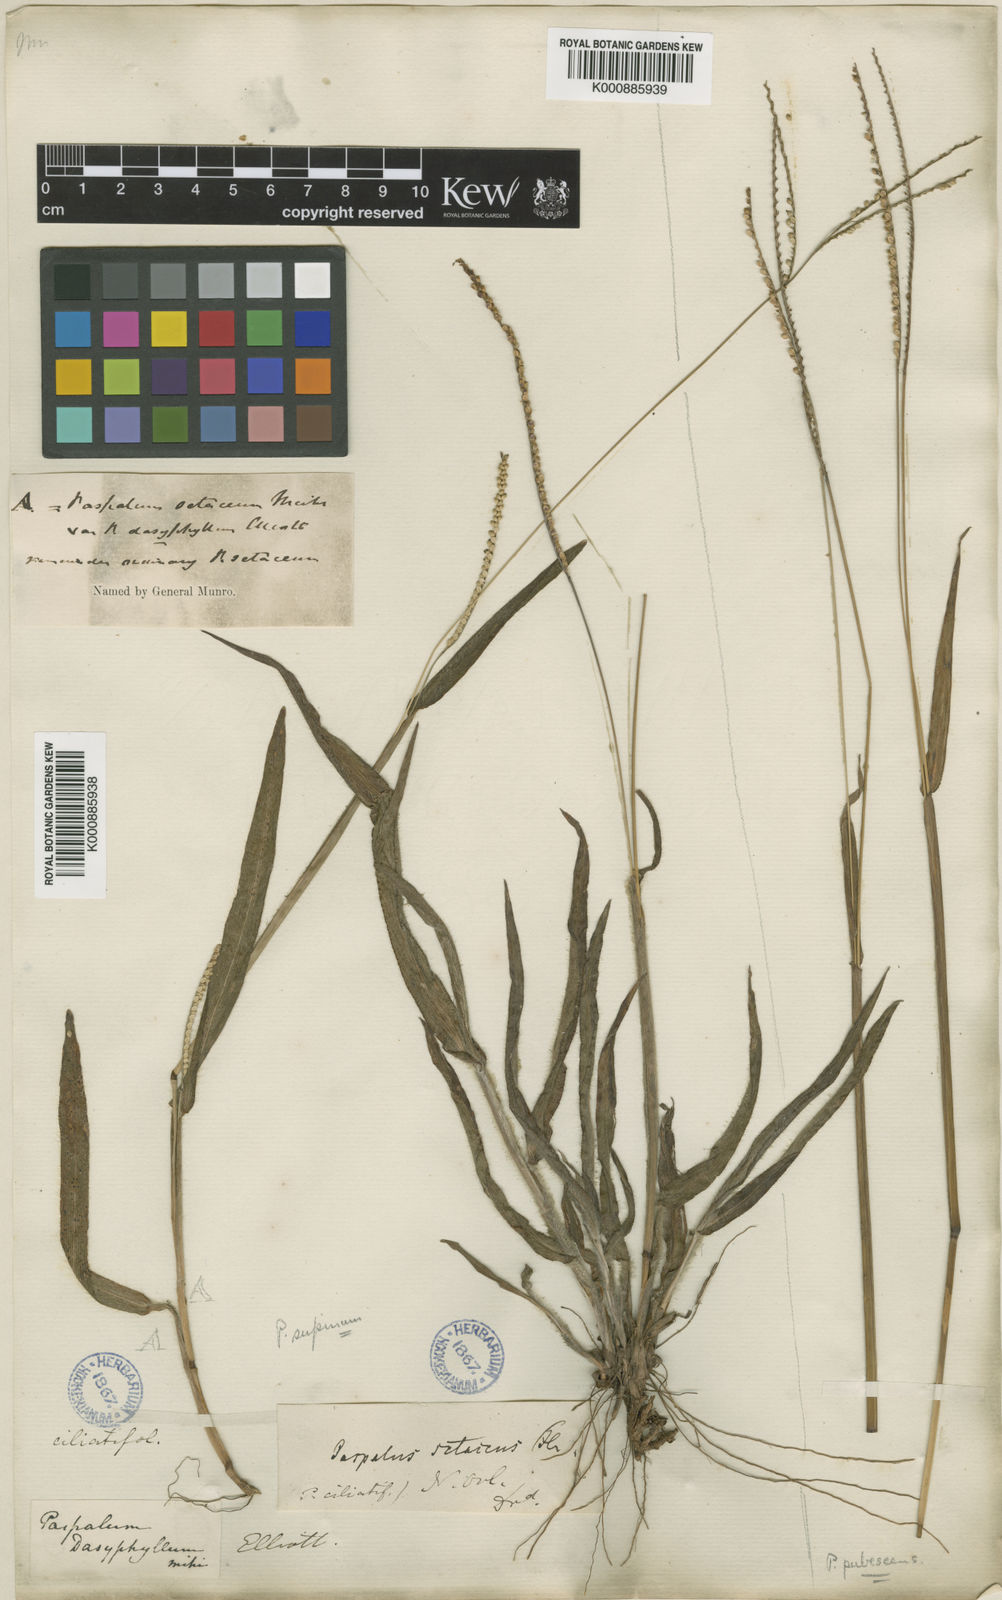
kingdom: Plantae
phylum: Tracheophyta
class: Liliopsida
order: Poales
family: Poaceae
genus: Paspalum
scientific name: Paspalum setaceum
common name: Slender paspalum
